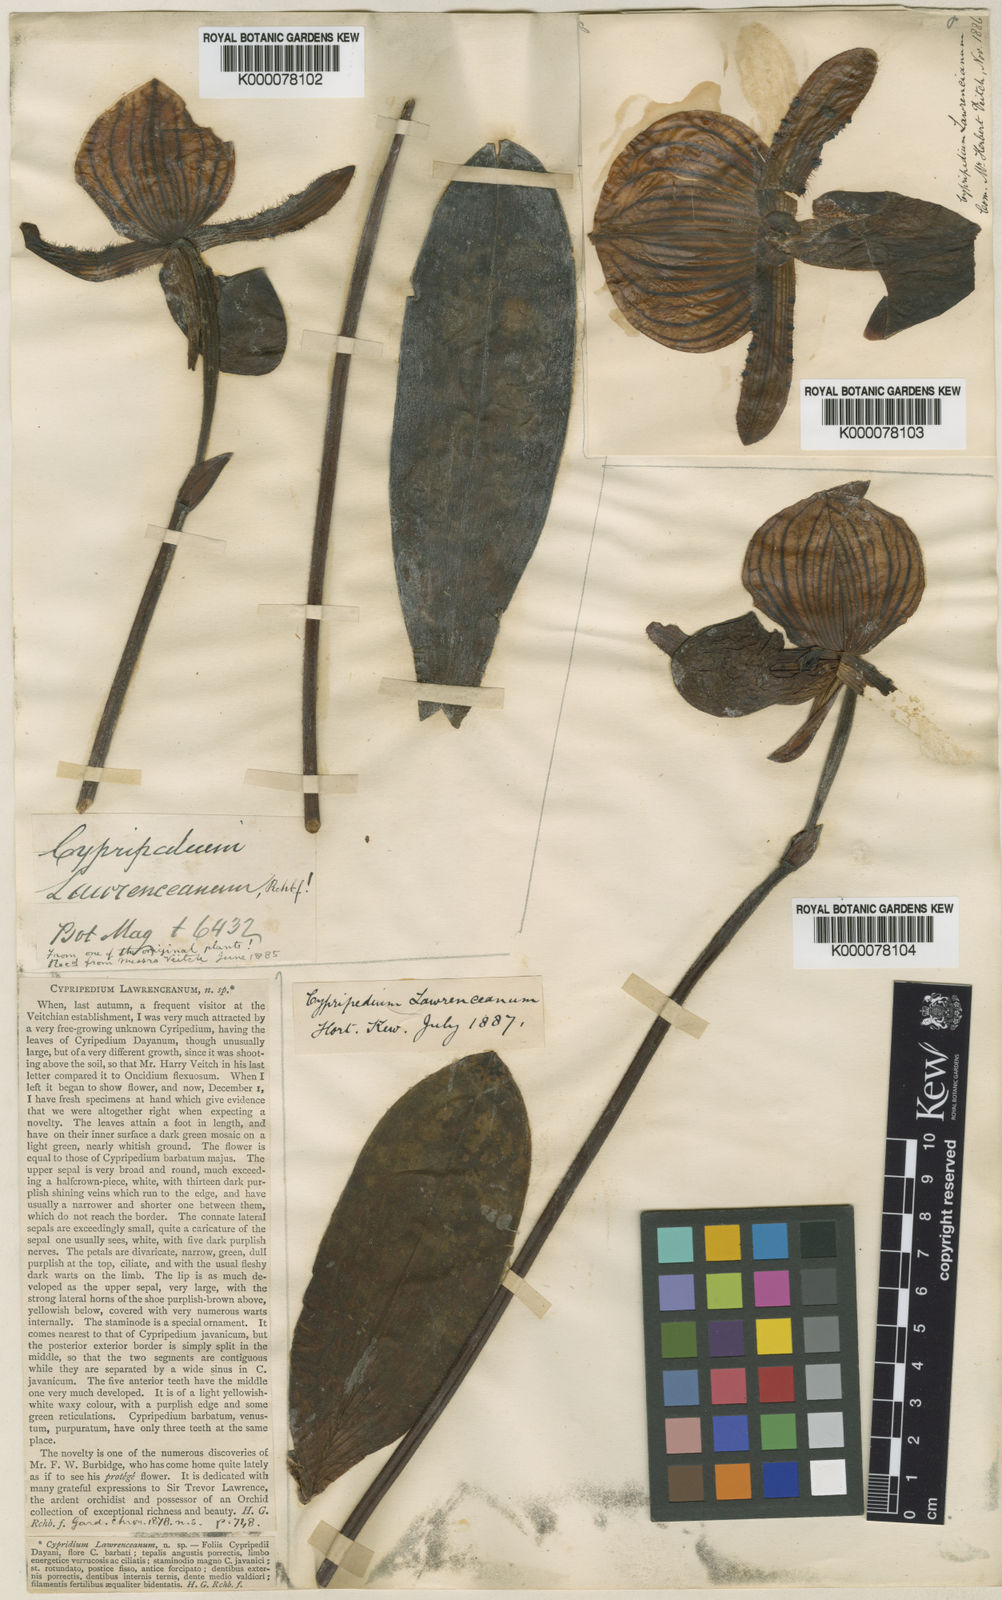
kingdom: Plantae
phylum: Tracheophyta
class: Liliopsida
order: Asparagales
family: Orchidaceae
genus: Paphiopedilum
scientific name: Paphiopedilum lawrenceanum
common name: Lawrence's paphiopedilum
